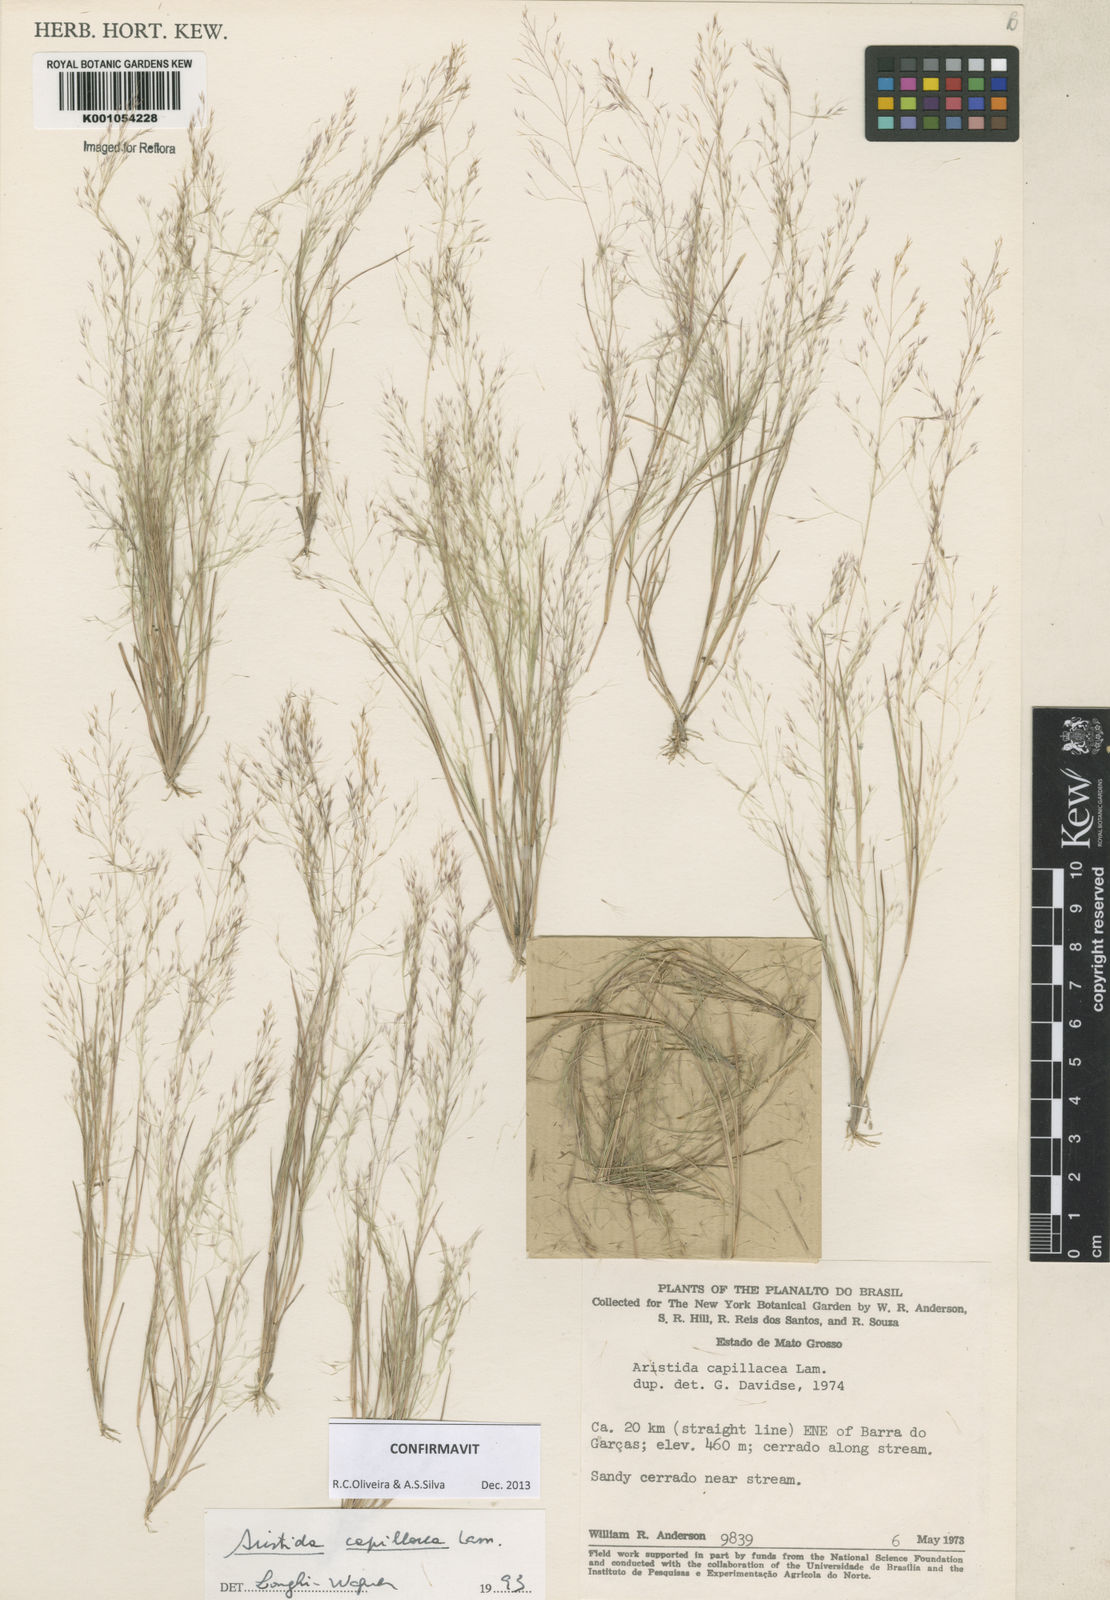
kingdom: Plantae
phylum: Tracheophyta
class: Liliopsida
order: Poales
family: Poaceae
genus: Aristida
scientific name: Aristida capillacea
